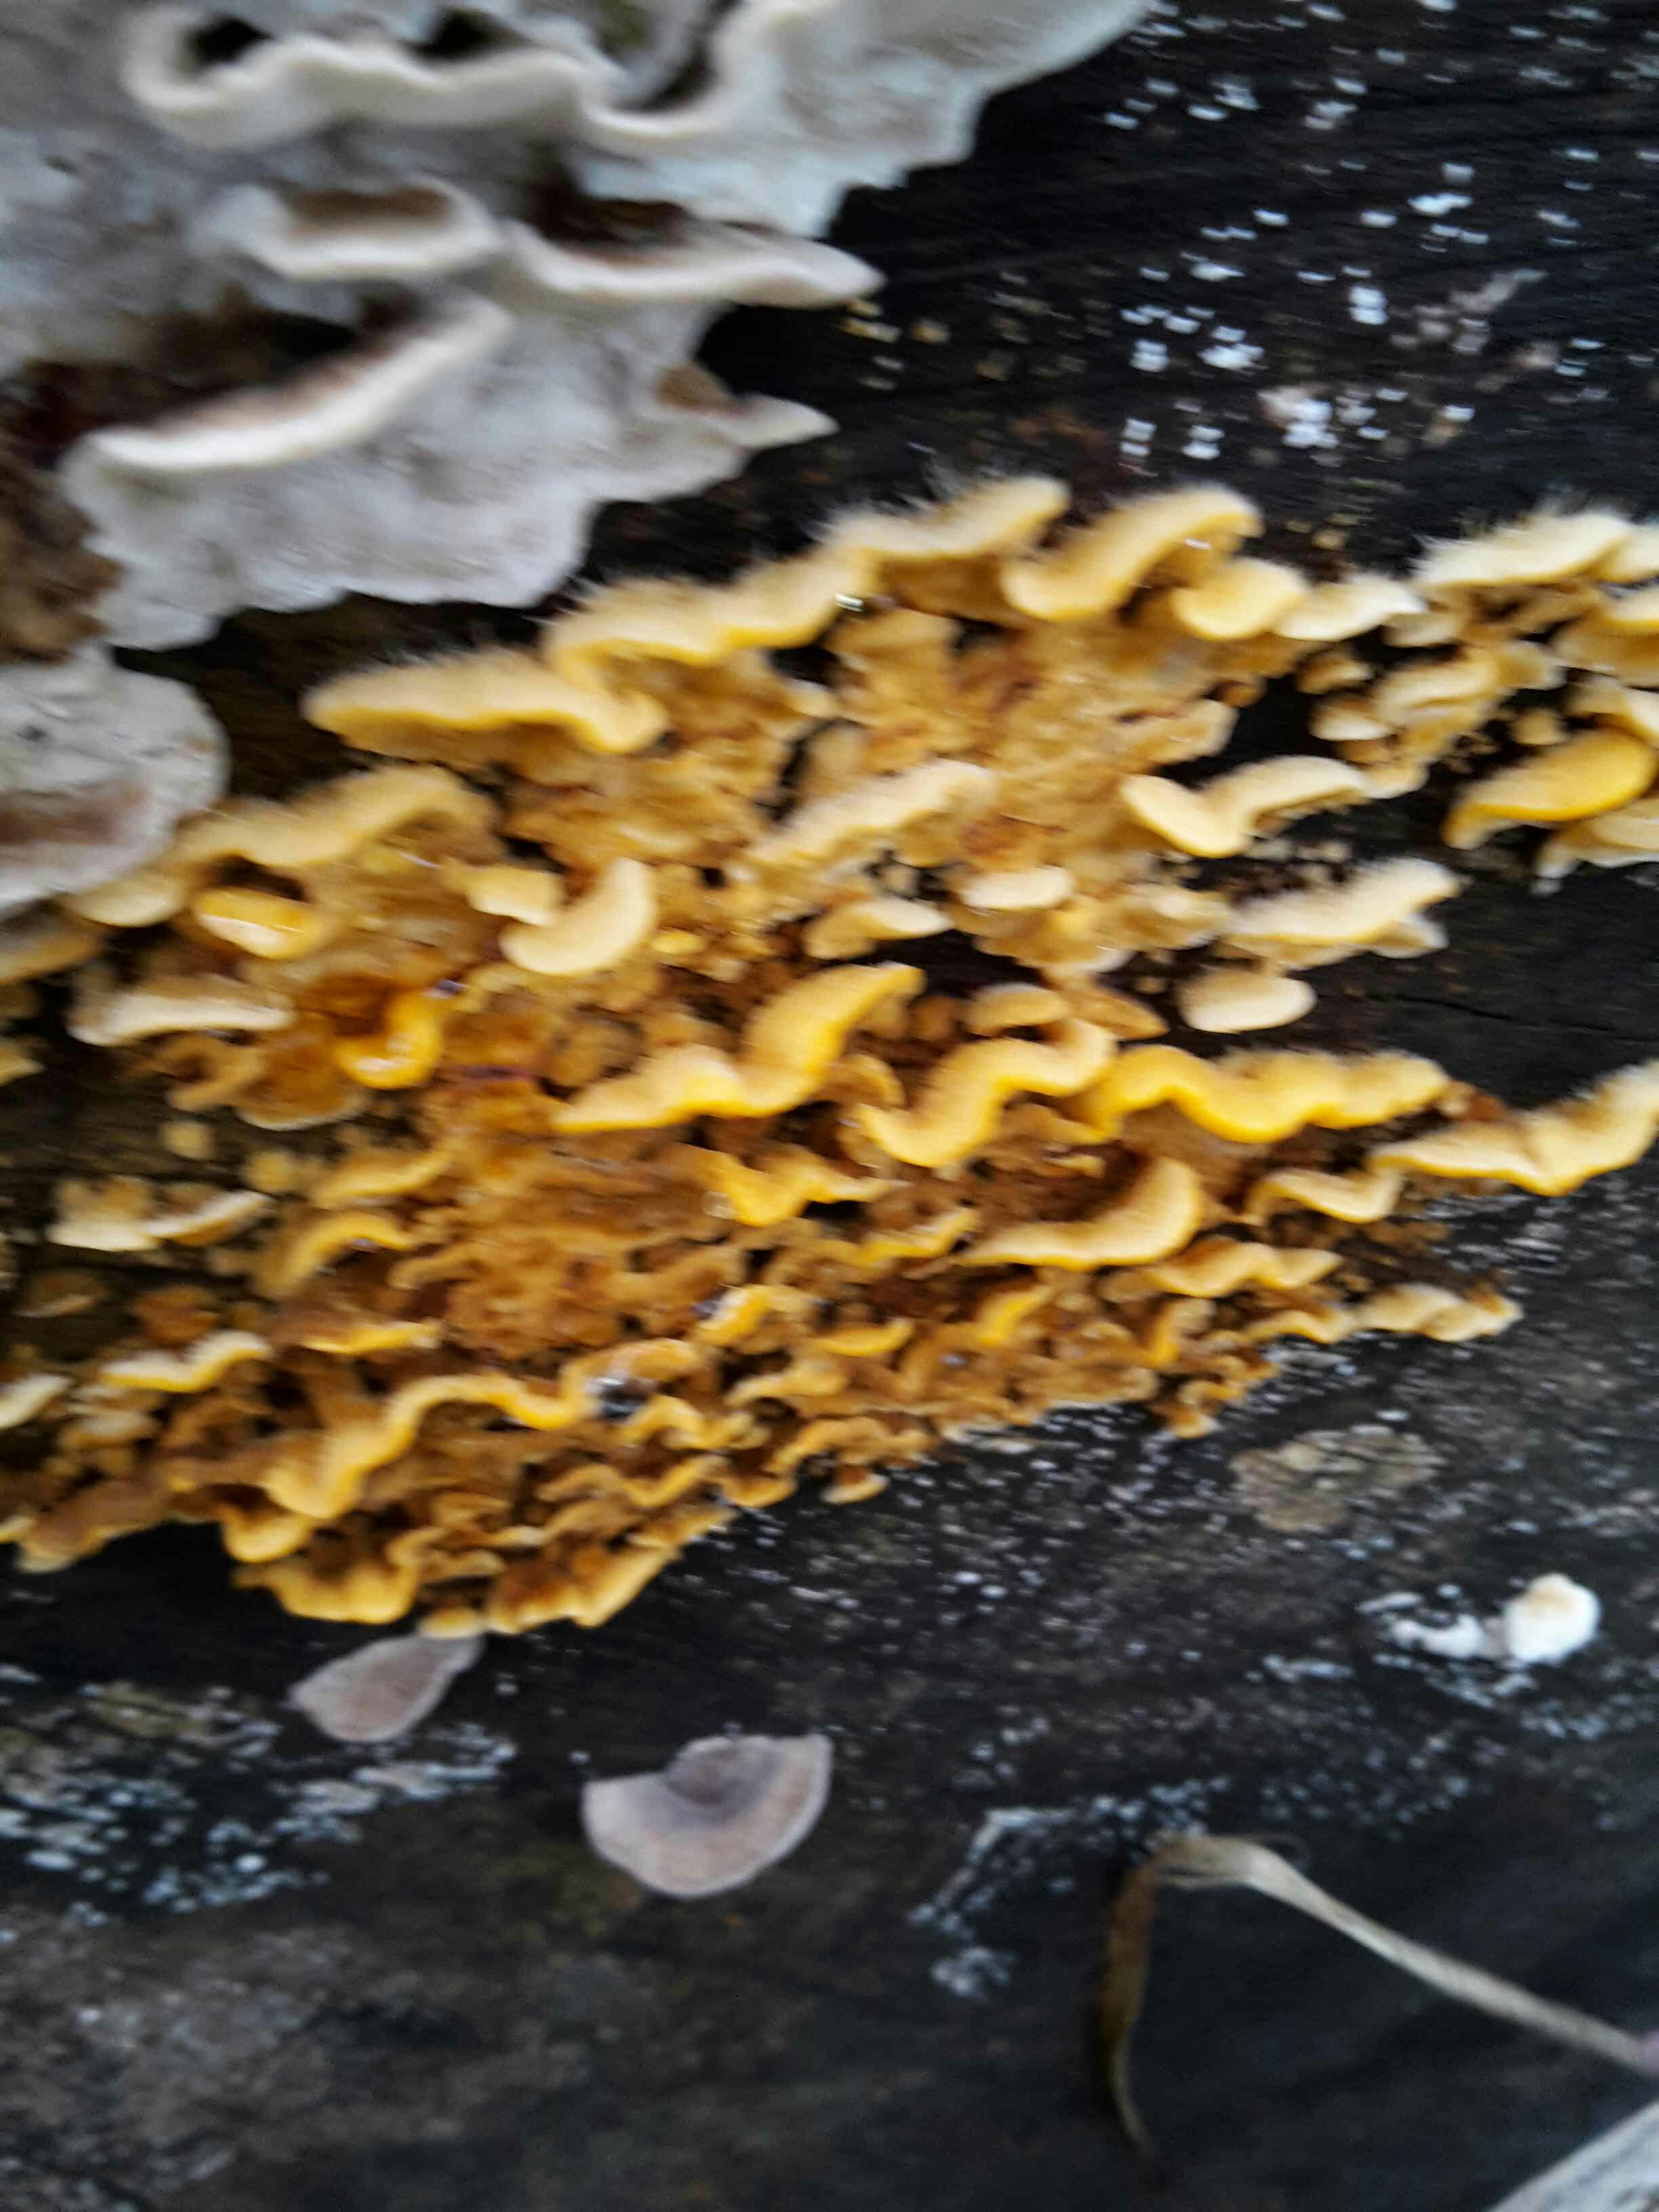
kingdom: Fungi
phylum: Basidiomycota
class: Agaricomycetes
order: Russulales
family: Stereaceae
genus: Stereum
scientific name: Stereum hirsutum
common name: håret lædersvamp
